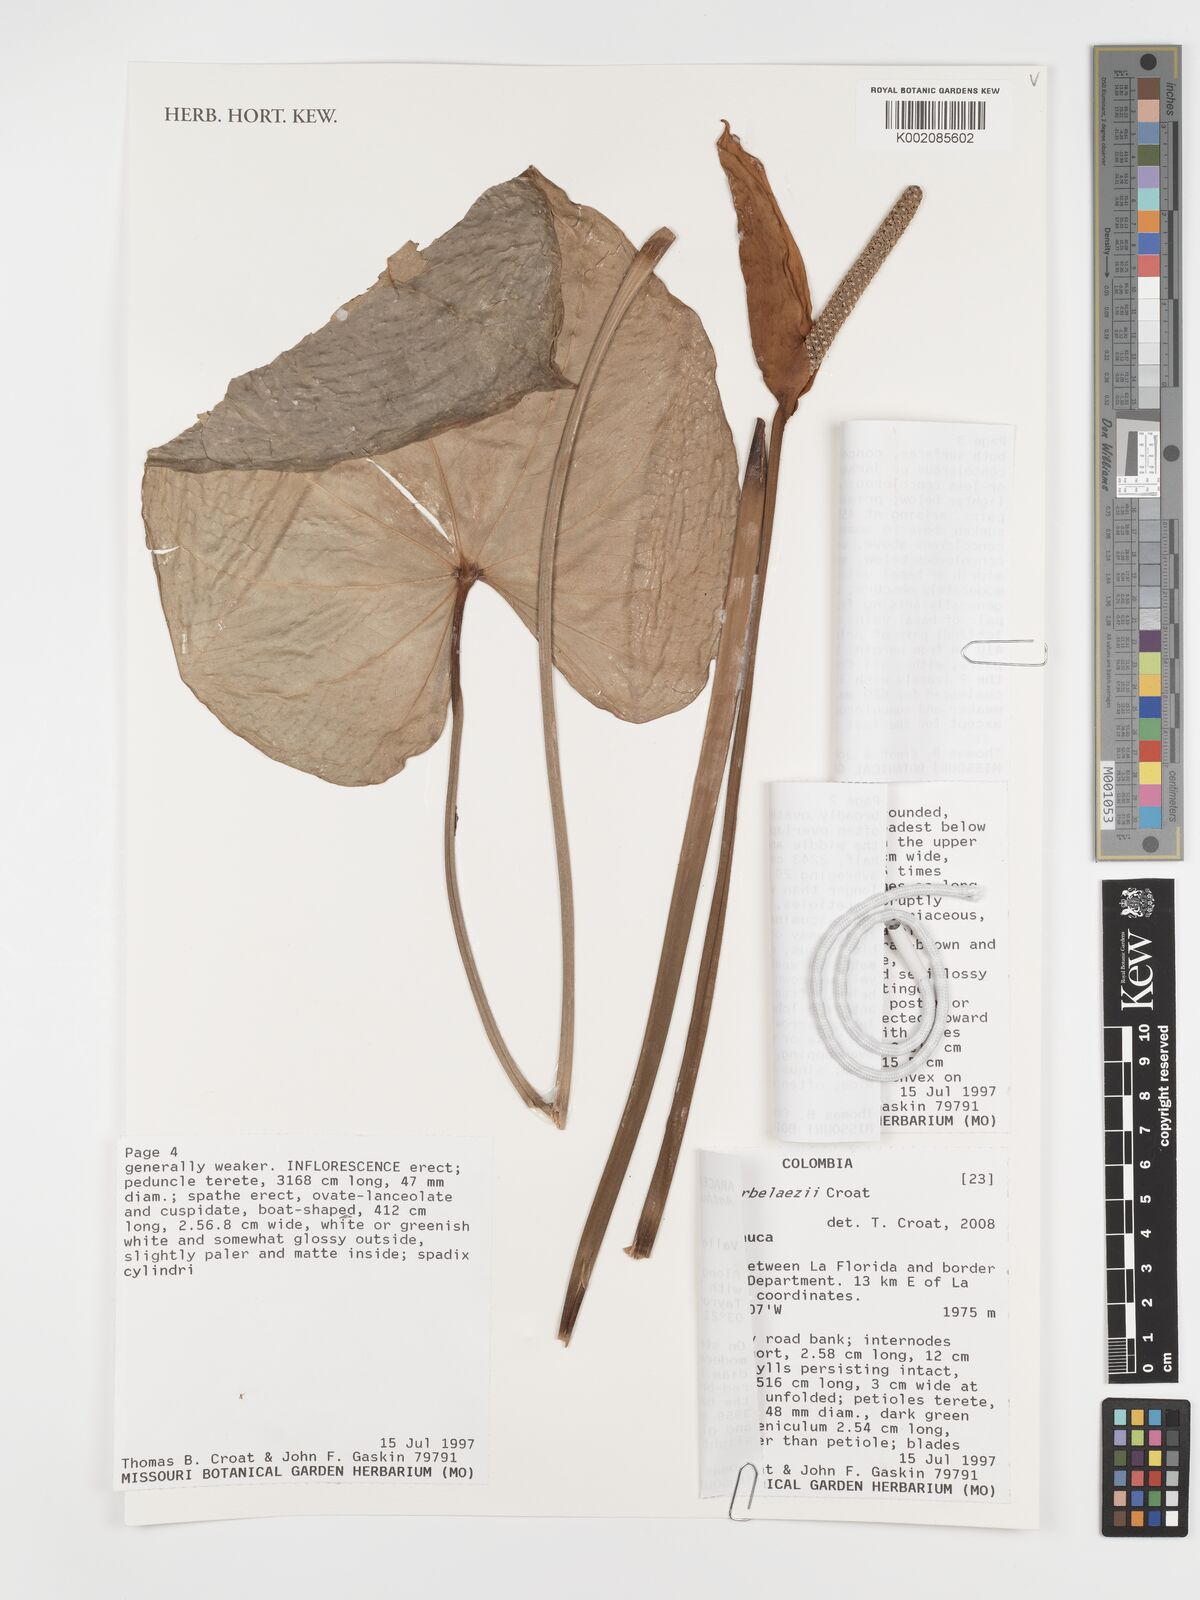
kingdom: Plantae
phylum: Tracheophyta
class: Liliopsida
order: Alismatales
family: Araceae
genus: Anthurium
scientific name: Anthurium arbelaezii
